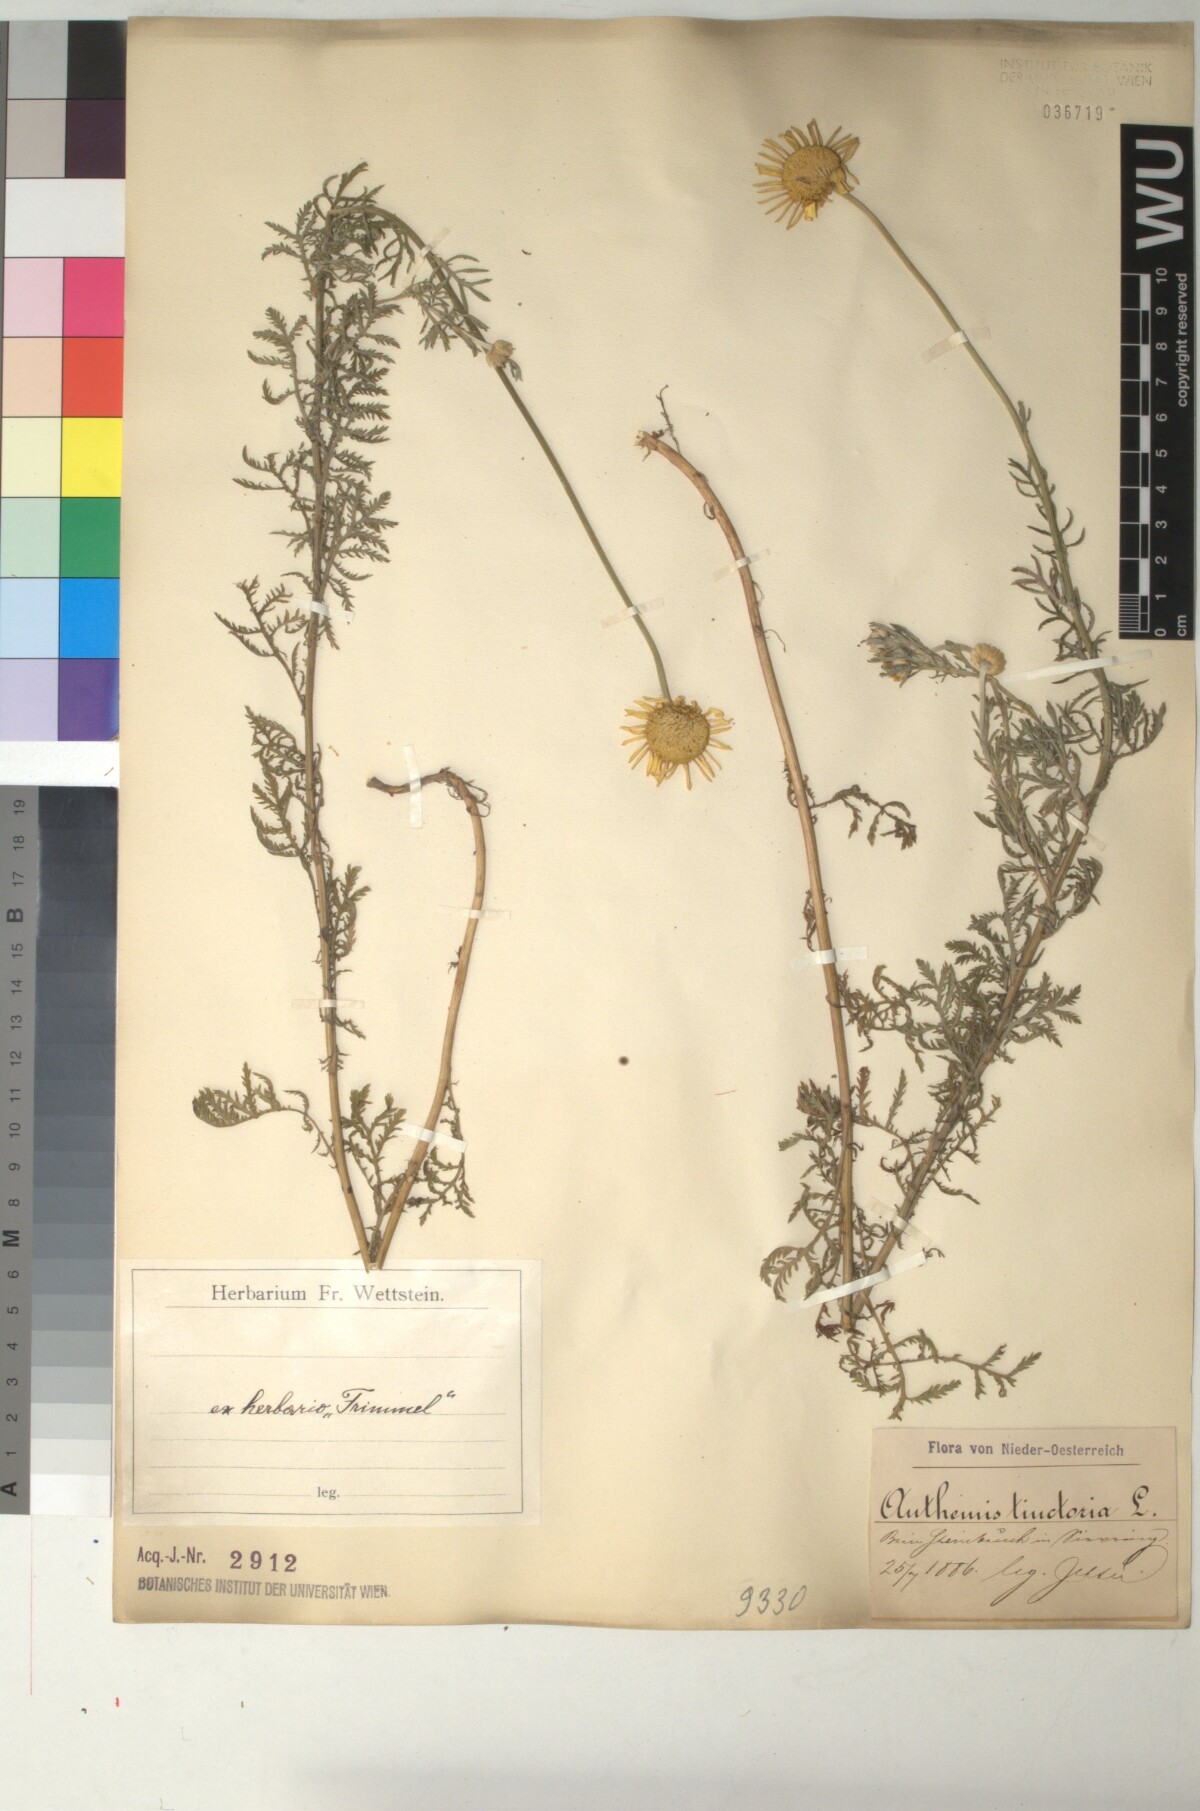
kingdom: Plantae
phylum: Tracheophyta
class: Magnoliopsida
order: Asterales
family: Asteraceae
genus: Cota
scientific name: Cota tinctoria
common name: Golden chamomile
